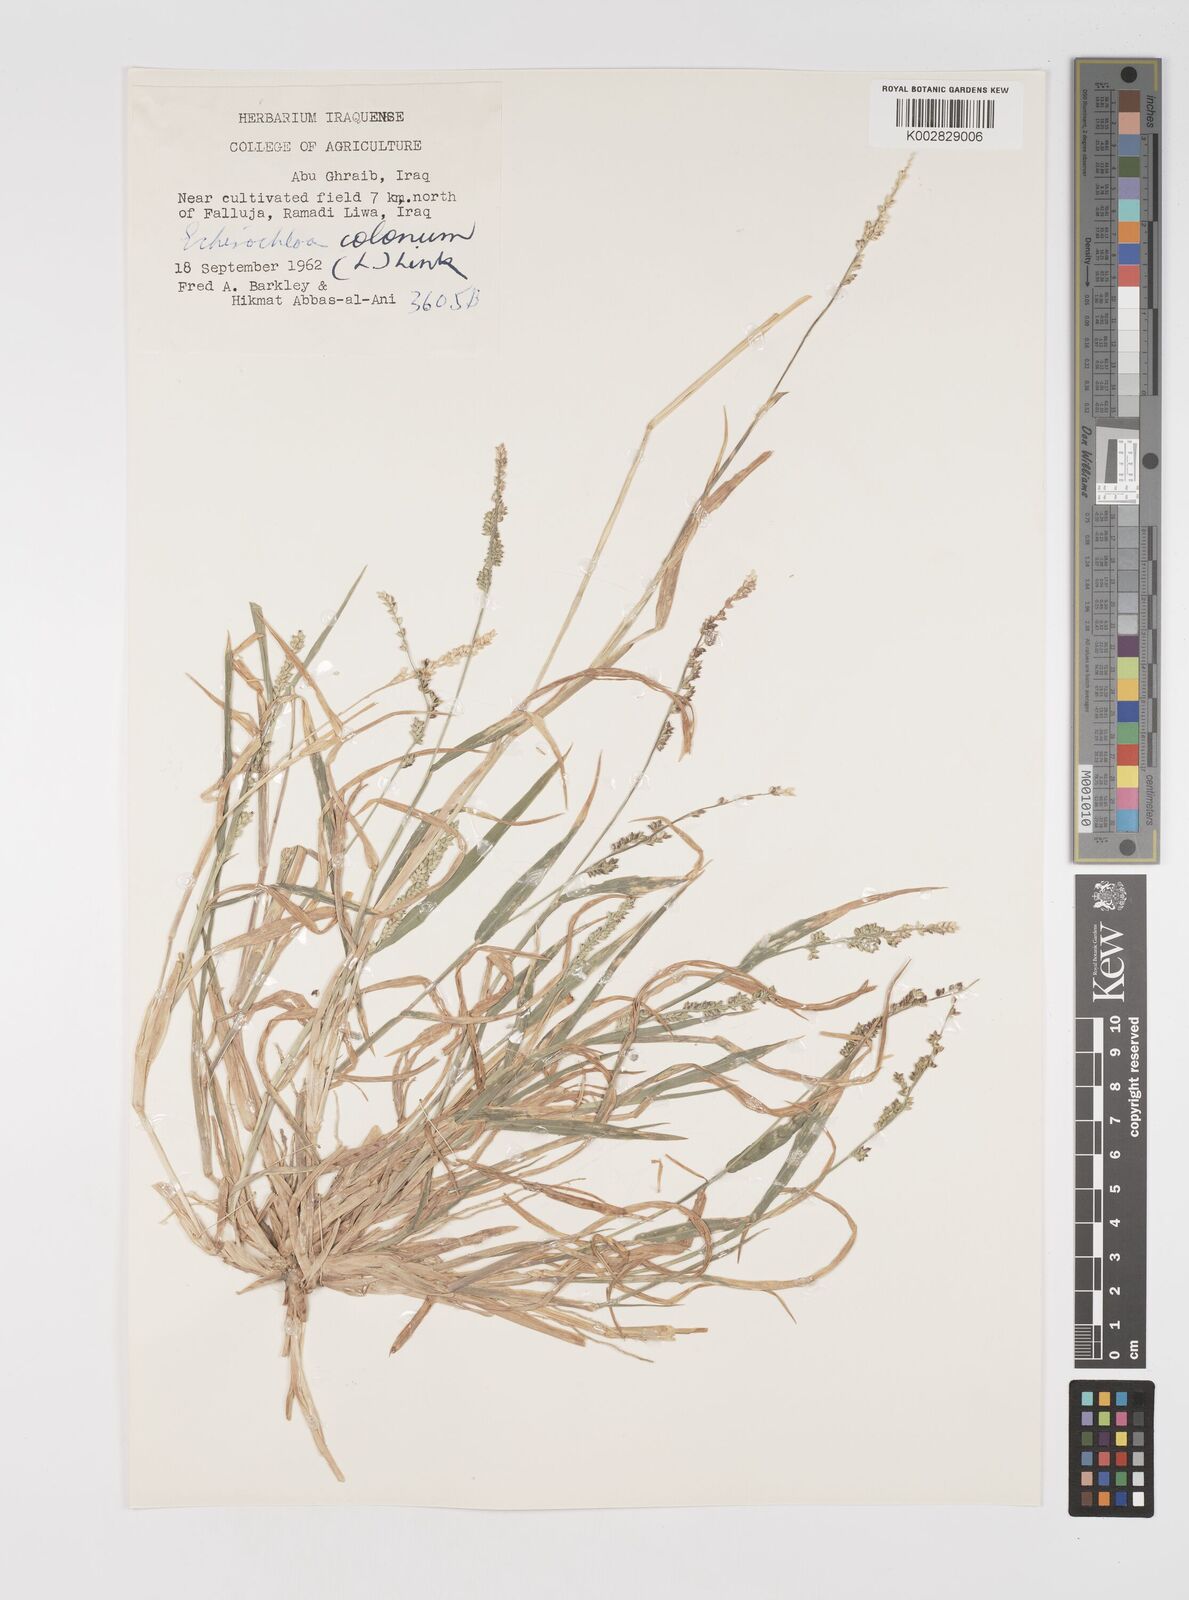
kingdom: Plantae
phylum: Tracheophyta
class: Liliopsida
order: Poales
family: Poaceae
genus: Echinochloa
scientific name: Echinochloa colonum
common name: Jungle rice
